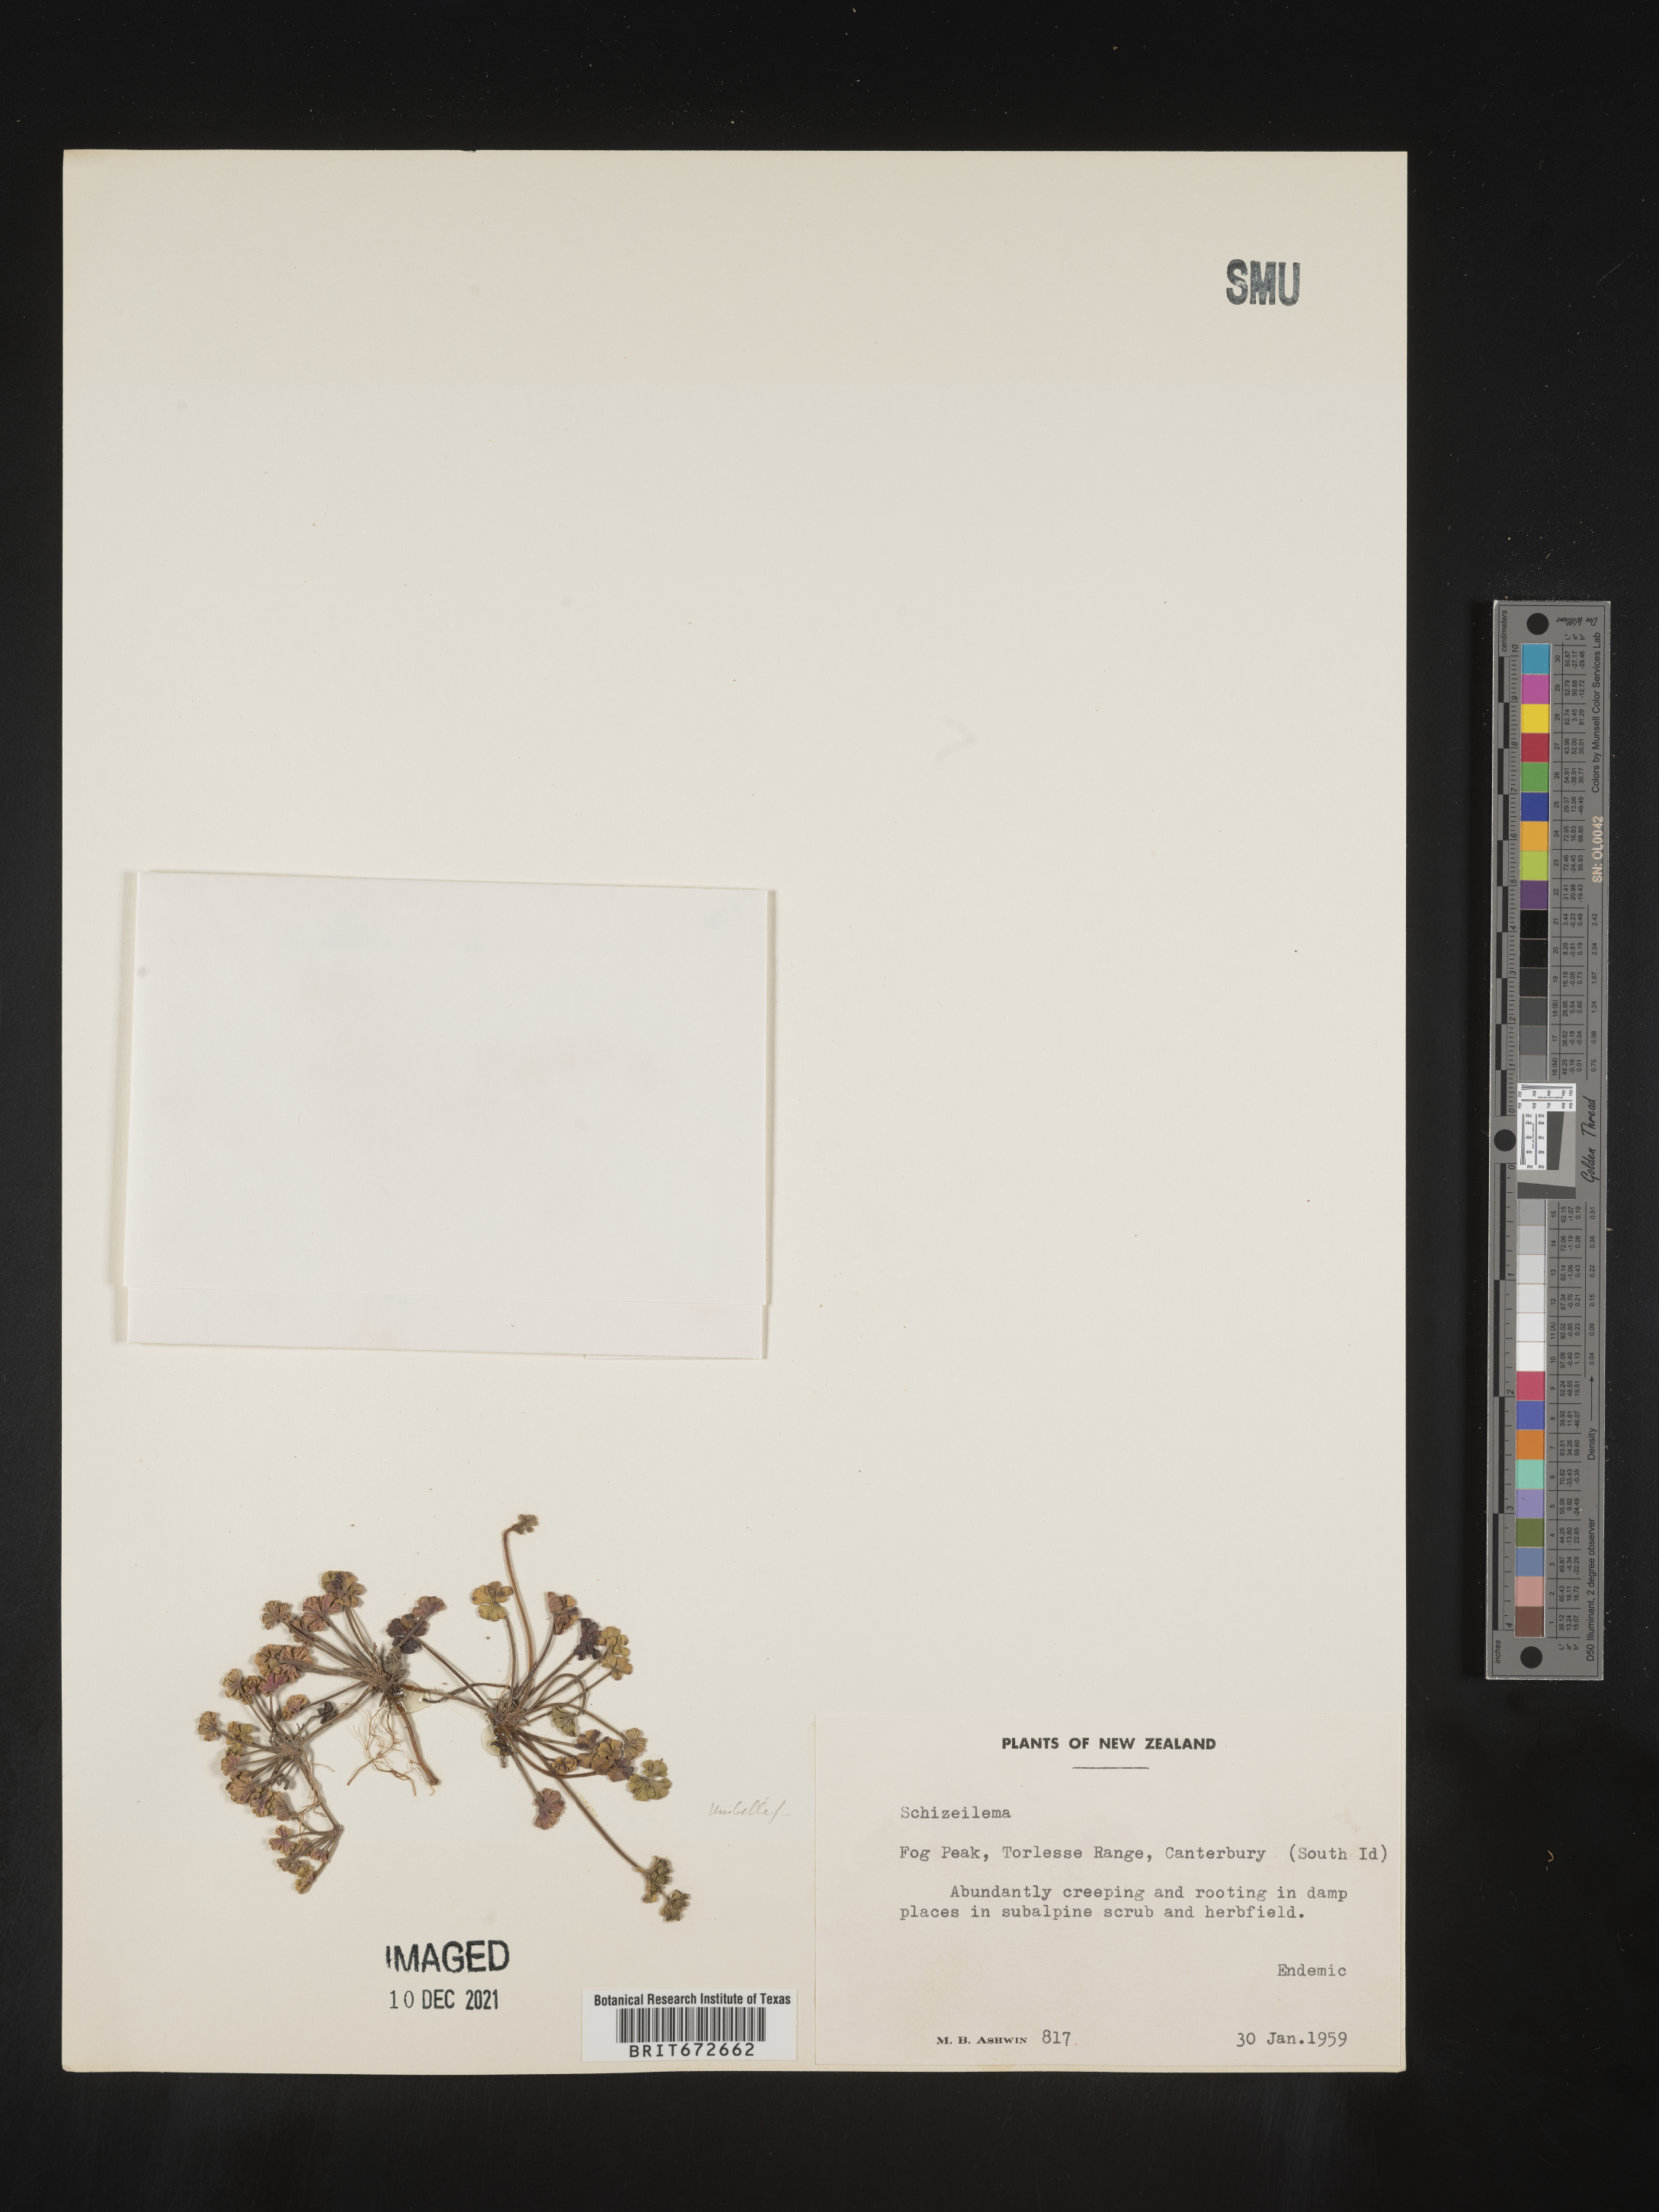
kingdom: Plantae
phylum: Tracheophyta
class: Magnoliopsida
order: Apiales
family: Apiaceae
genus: Azorella
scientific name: Azorella
